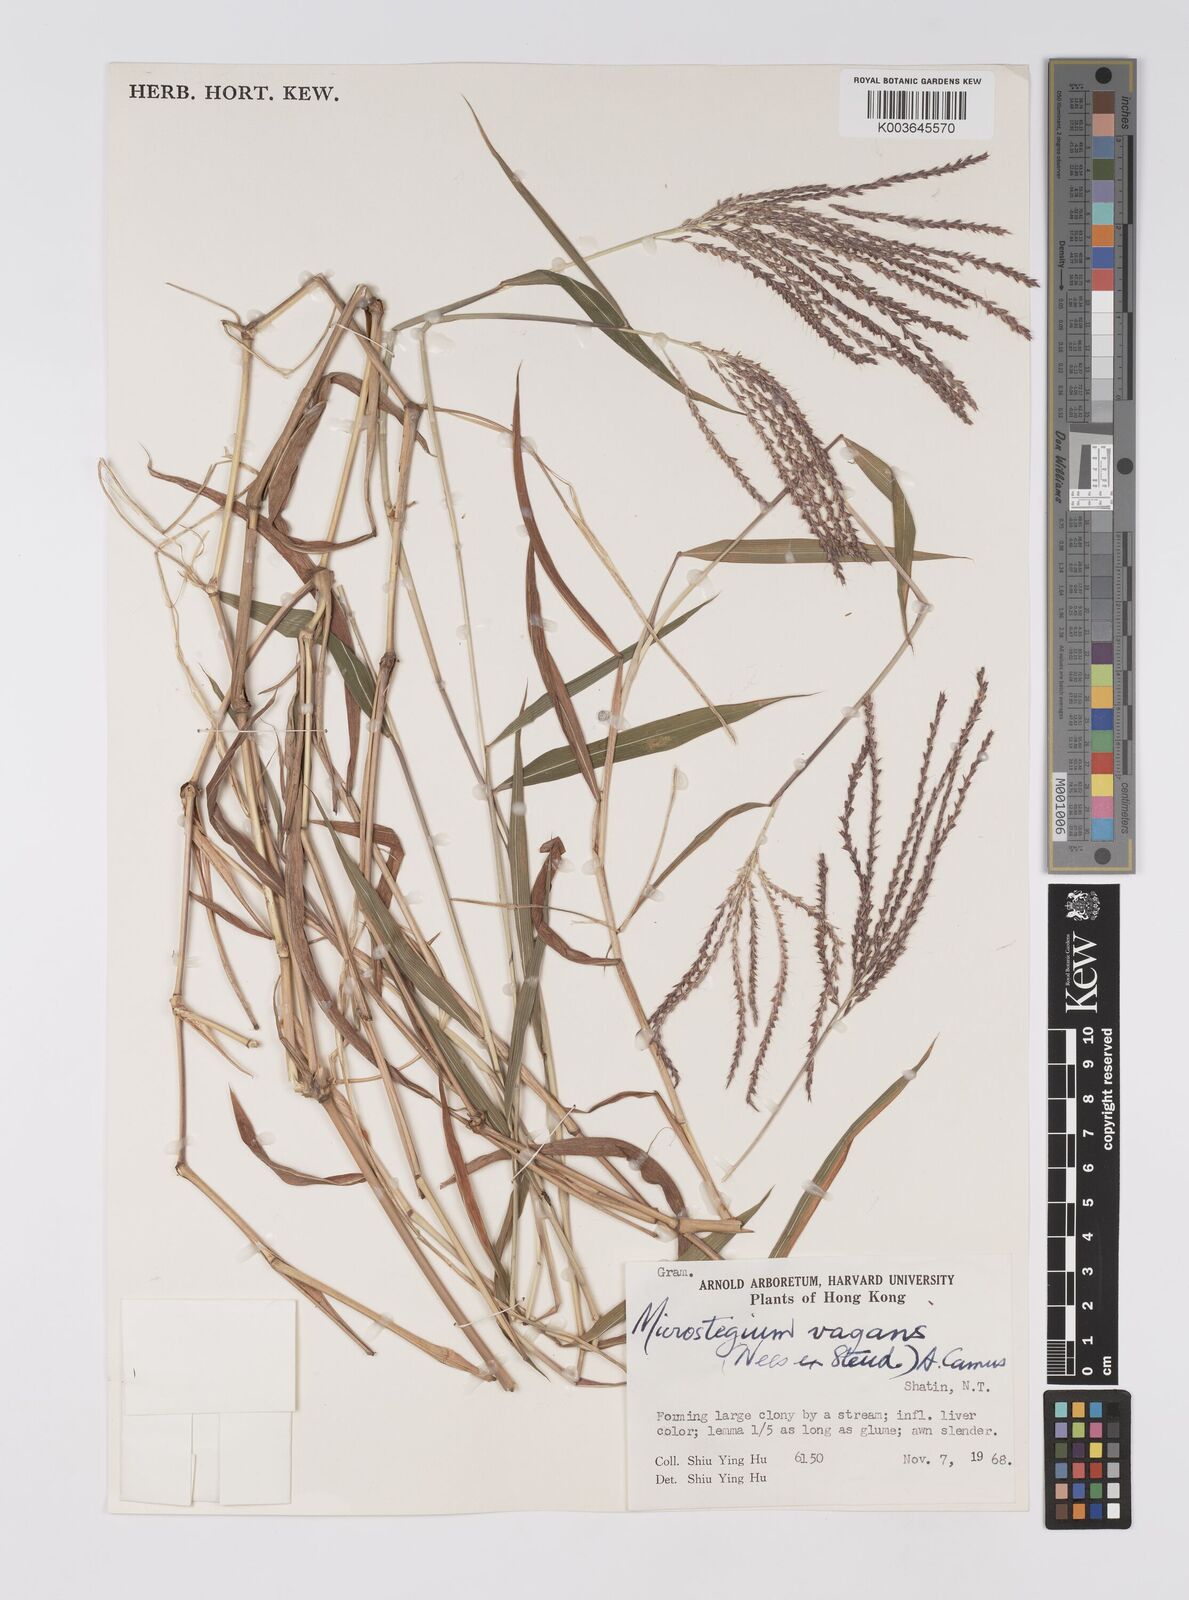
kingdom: Plantae
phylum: Tracheophyta
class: Liliopsida
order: Poales
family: Poaceae
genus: Microstegium
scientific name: Microstegium fasciculatum
